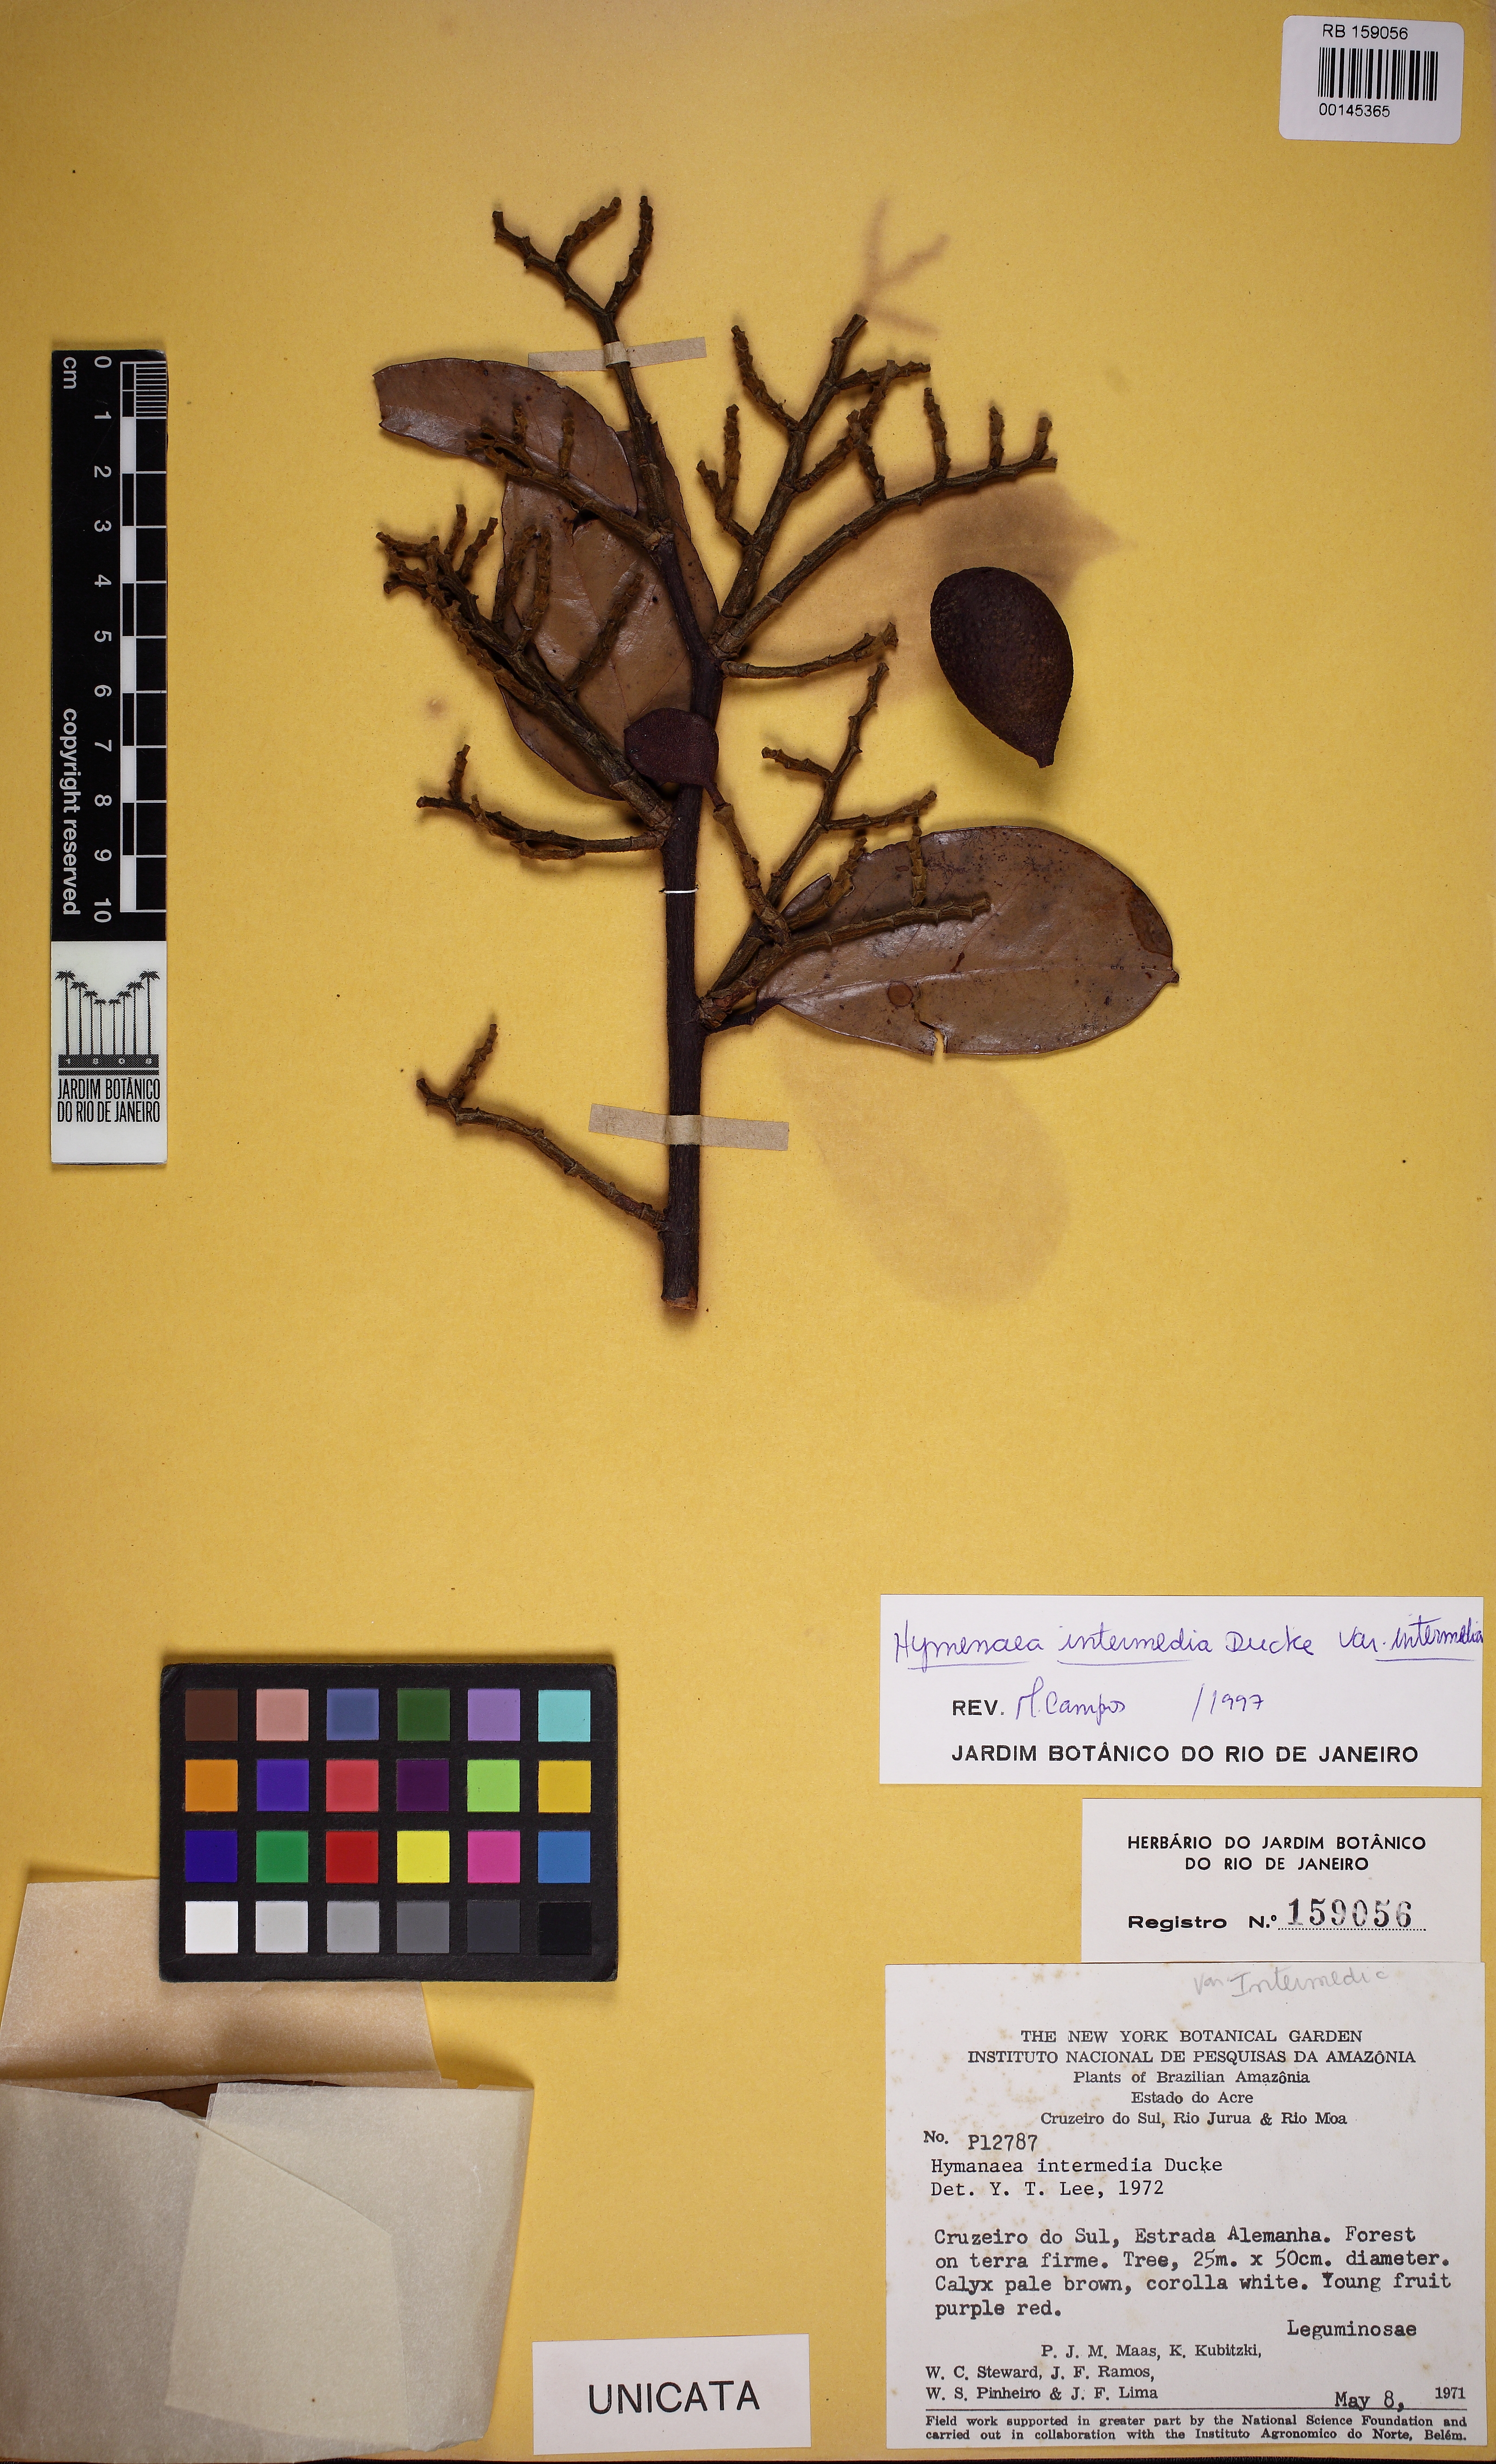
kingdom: Plantae
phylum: Tracheophyta
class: Magnoliopsida
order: Fabales
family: Fabaceae
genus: Hymenaea
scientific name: Hymenaea intermedia
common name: South american copal
